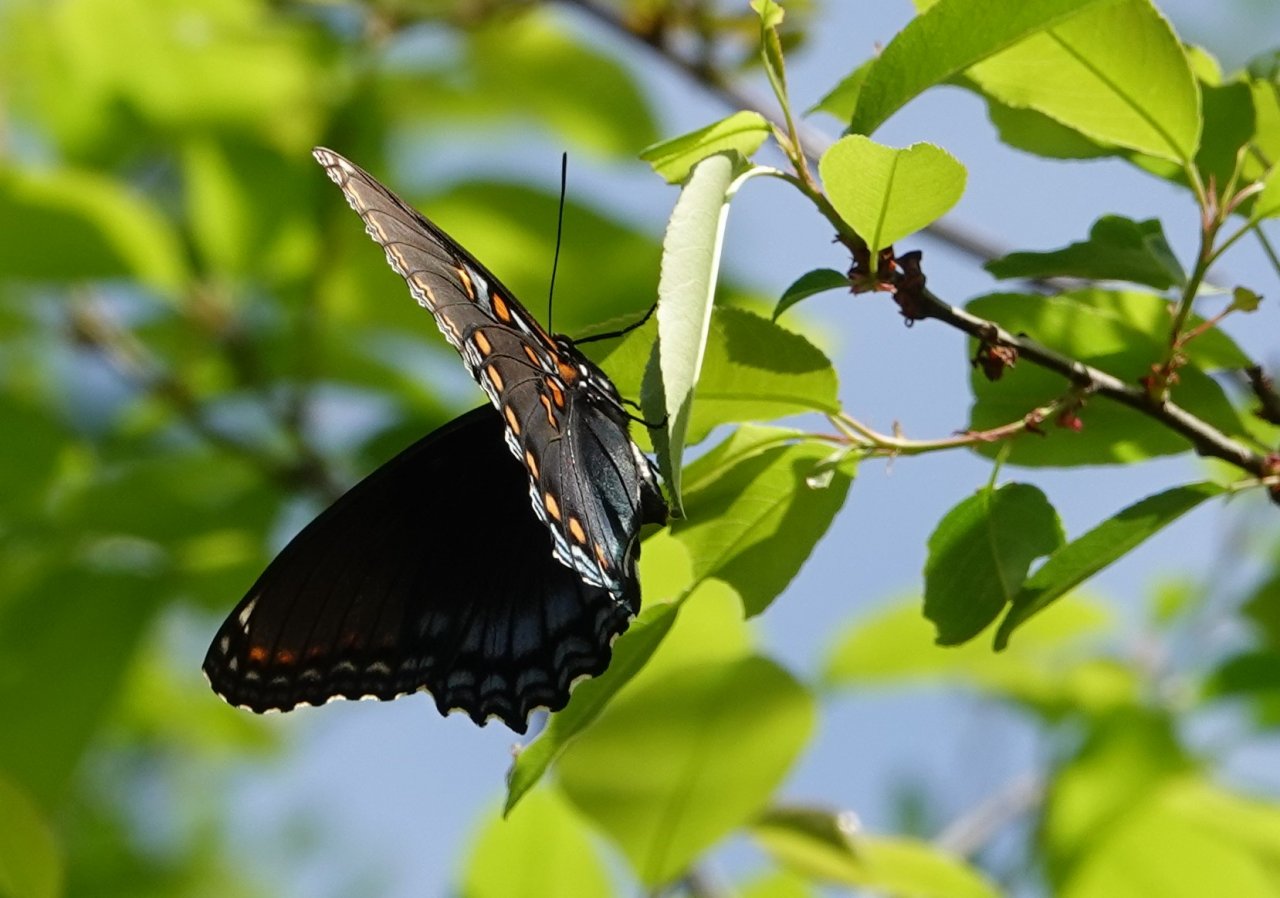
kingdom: Animalia
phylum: Arthropoda
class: Insecta
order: Lepidoptera
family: Nymphalidae
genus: Limenitis
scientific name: Limenitis astyanax
